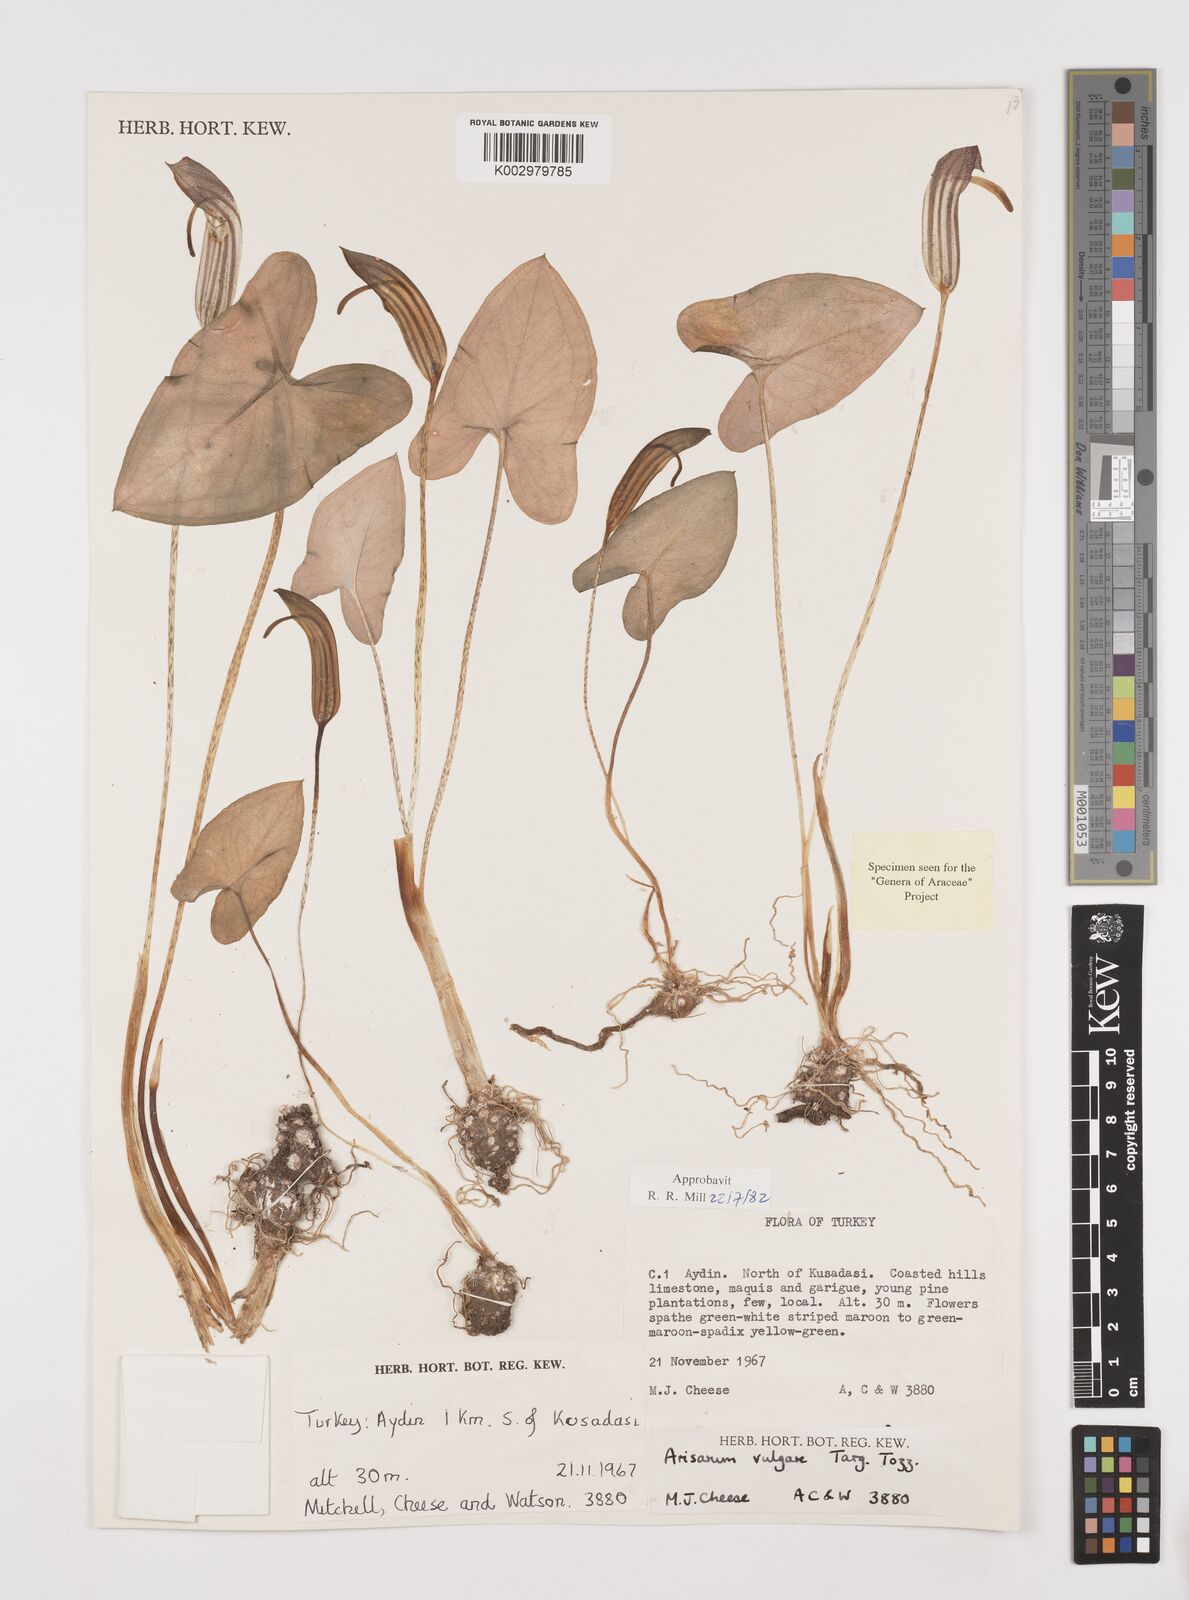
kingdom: Plantae
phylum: Tracheophyta
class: Liliopsida
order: Alismatales
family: Araceae
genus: Arisarum
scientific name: Arisarum vulgare
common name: Common arisarum
